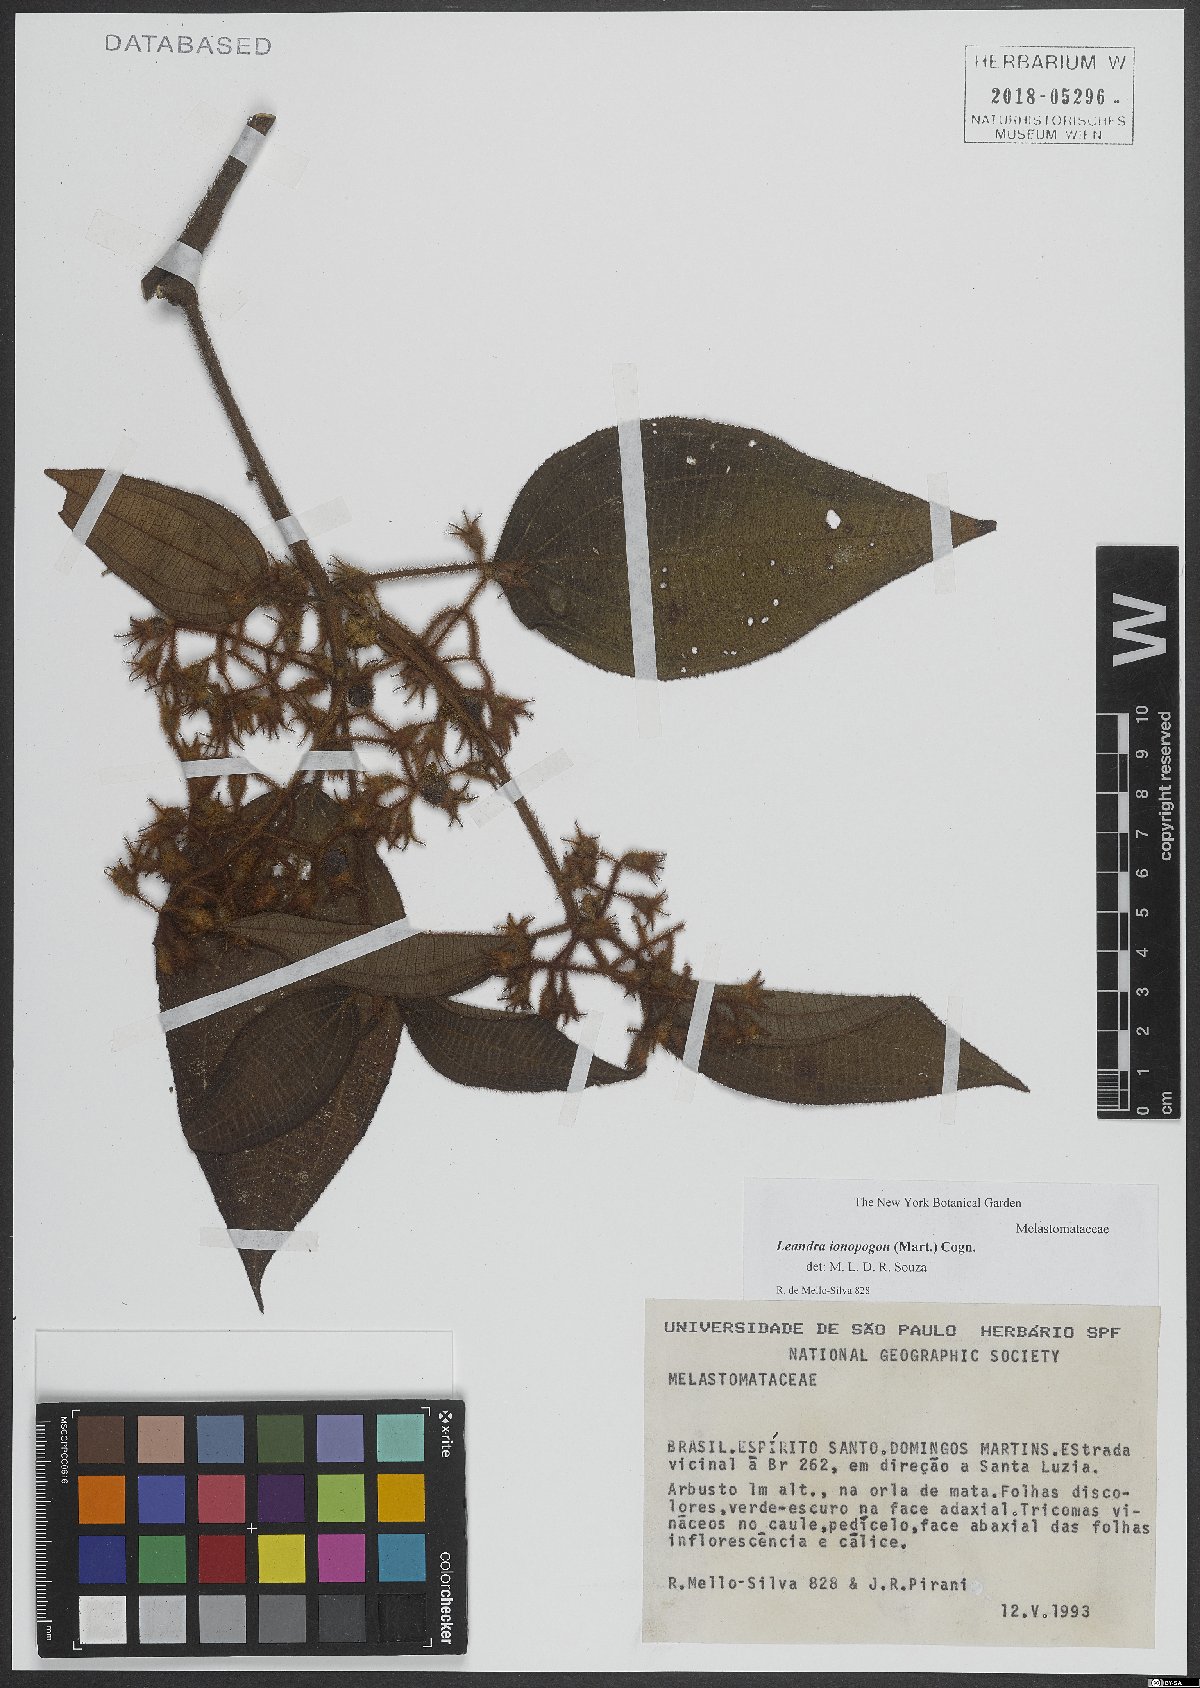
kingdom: Plantae
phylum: Tracheophyta
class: Magnoliopsida
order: Myrtales
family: Melastomataceae
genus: Miconia
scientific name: Miconia ionopogon
